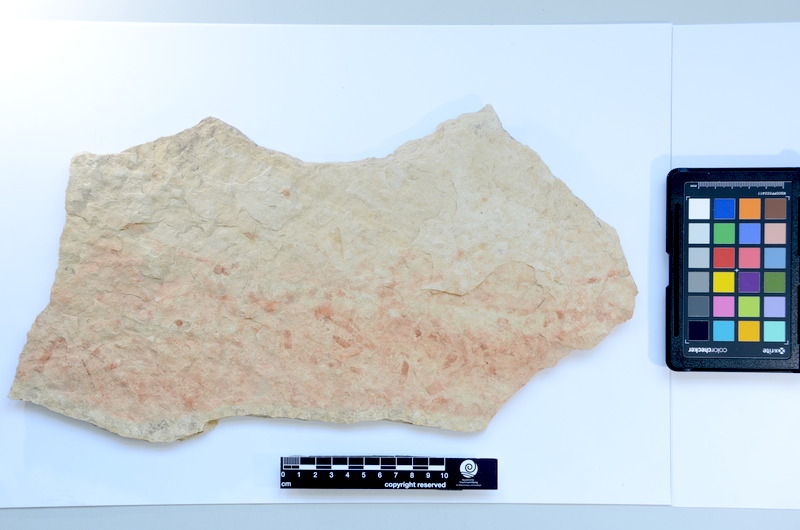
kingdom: Animalia
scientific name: Animalia
